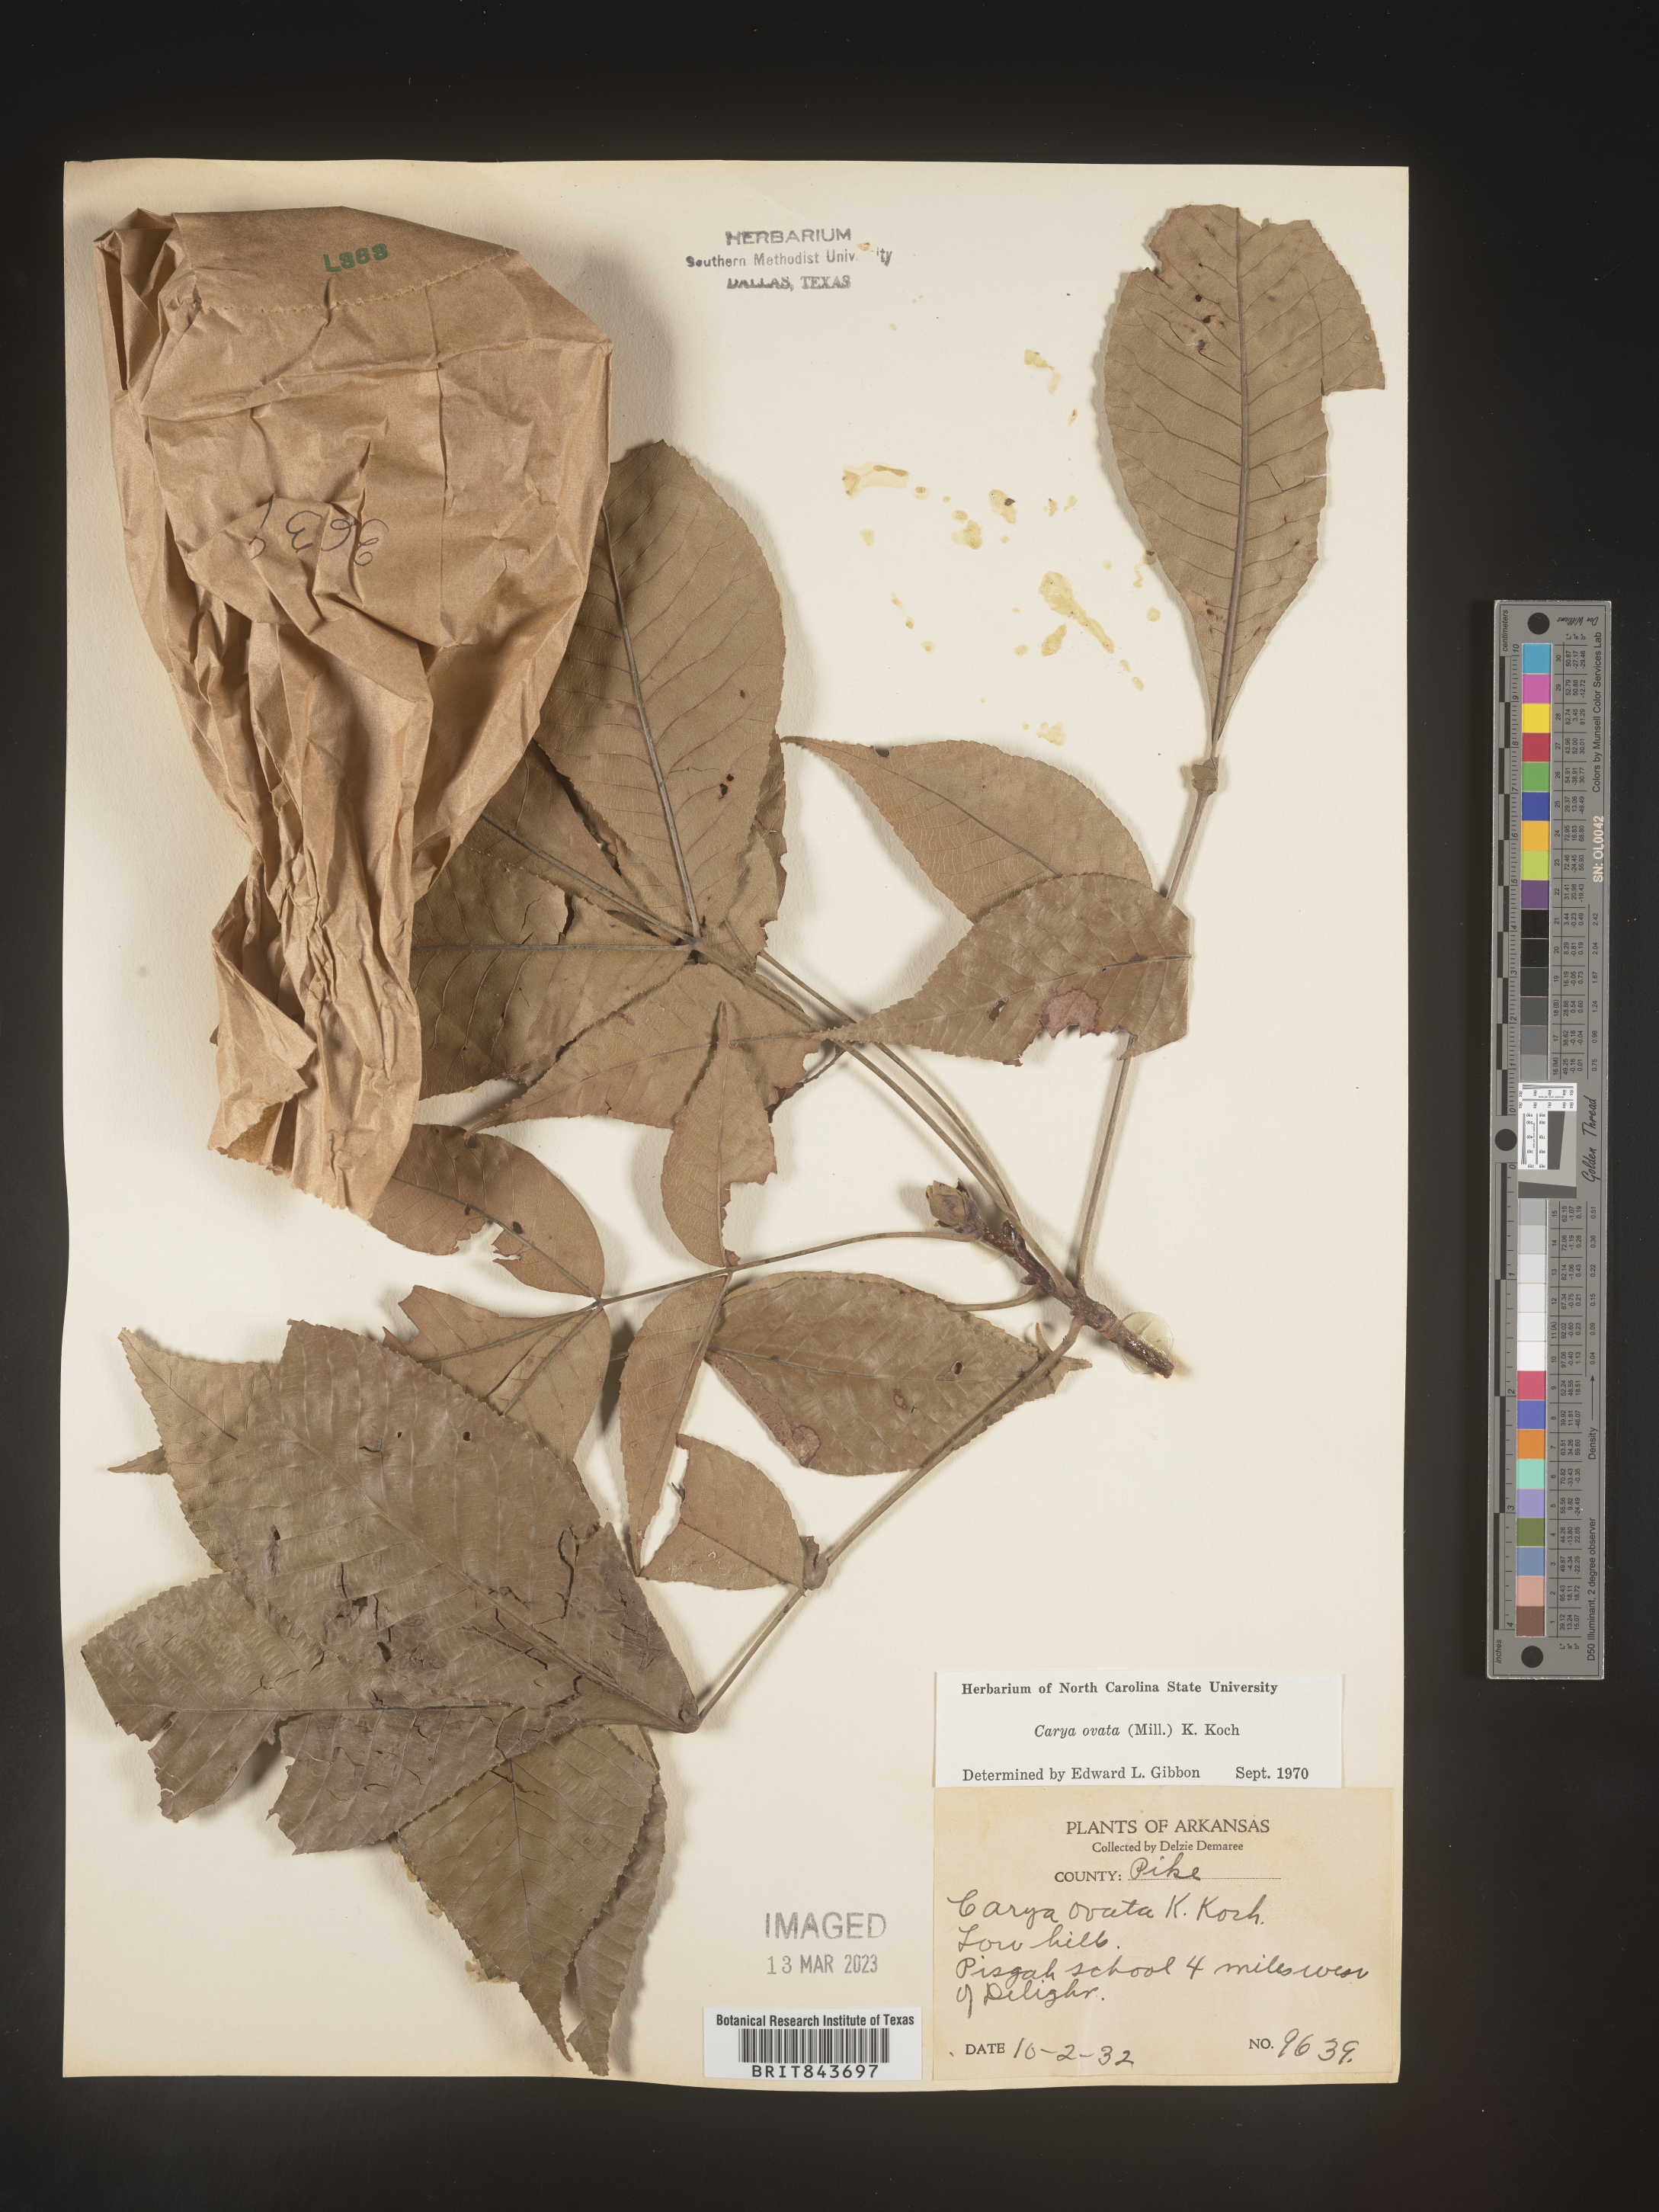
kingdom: Plantae
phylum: Tracheophyta
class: Magnoliopsida
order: Fagales
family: Juglandaceae
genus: Carya
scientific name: Carya ovata
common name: Shagbark hickory
